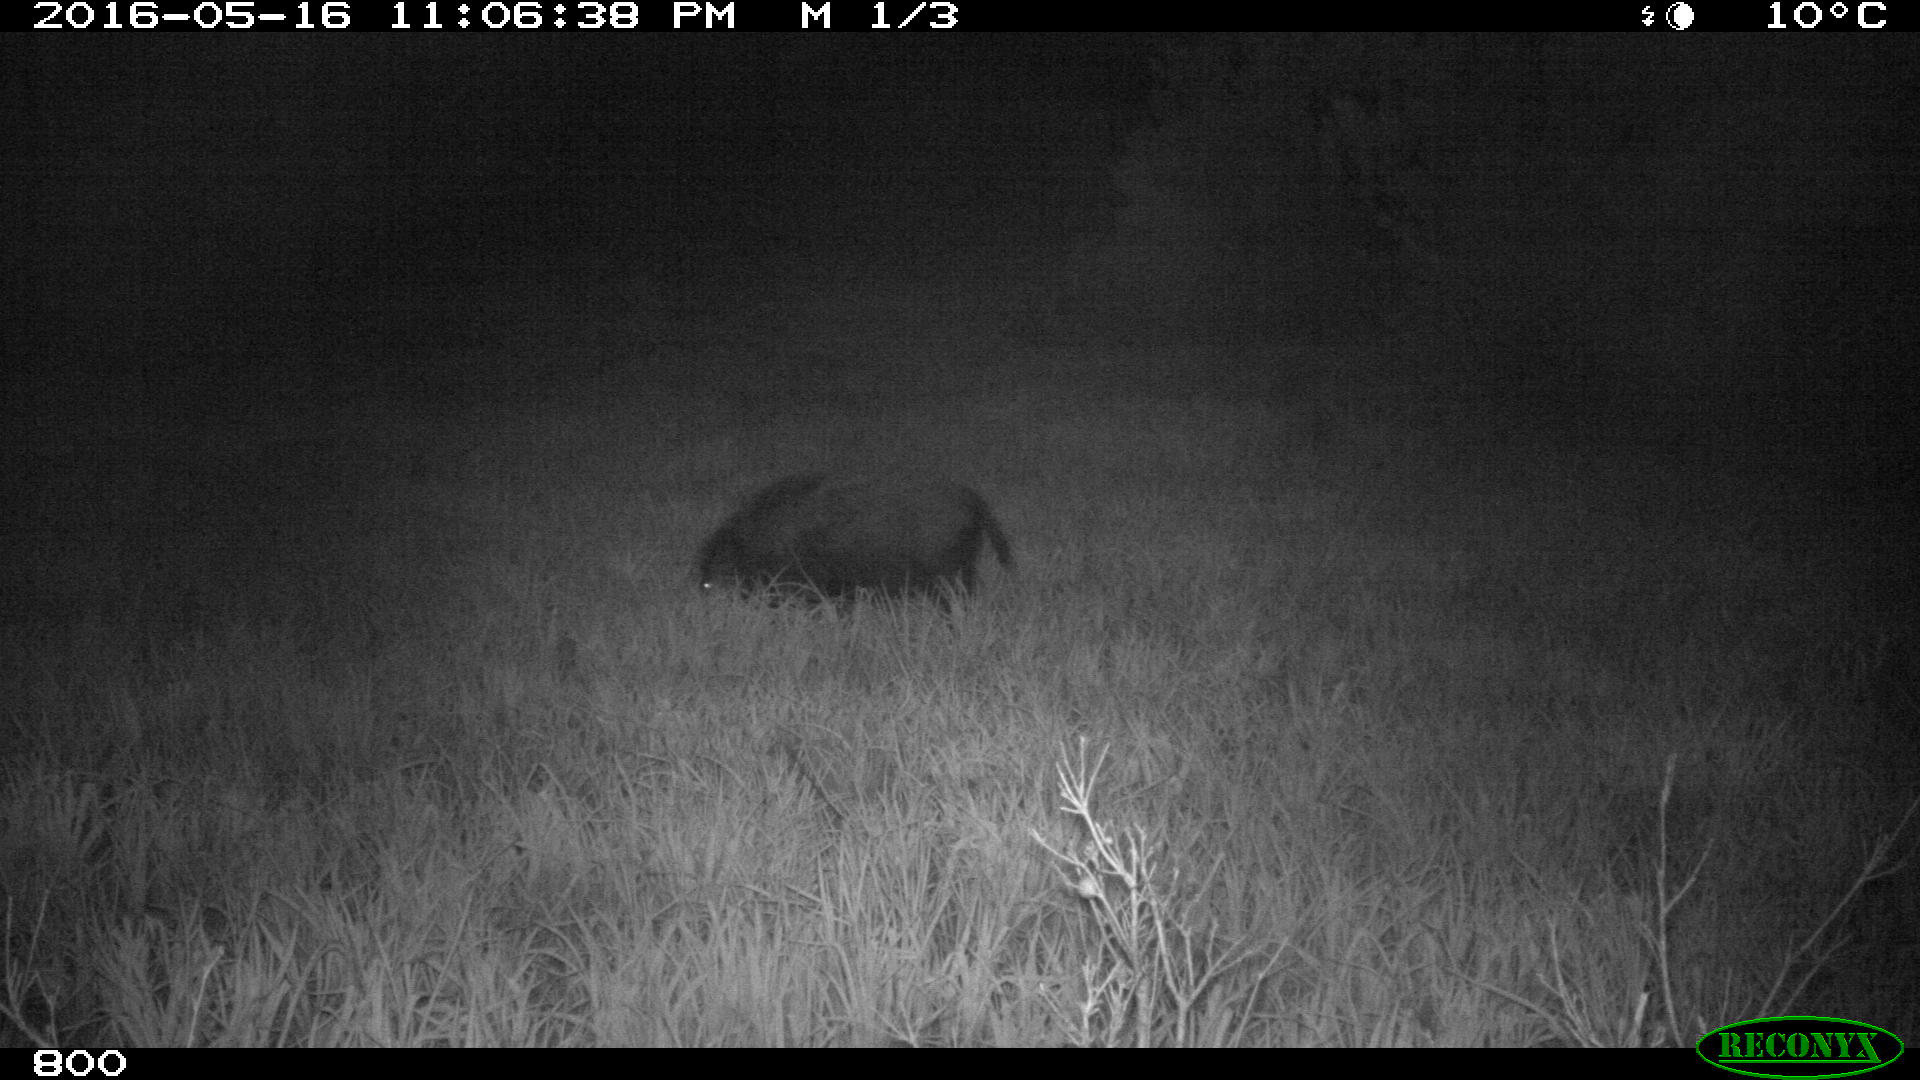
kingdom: Animalia
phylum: Chordata
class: Mammalia
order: Artiodactyla
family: Suidae
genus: Sus
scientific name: Sus scrofa
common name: Wild boar
